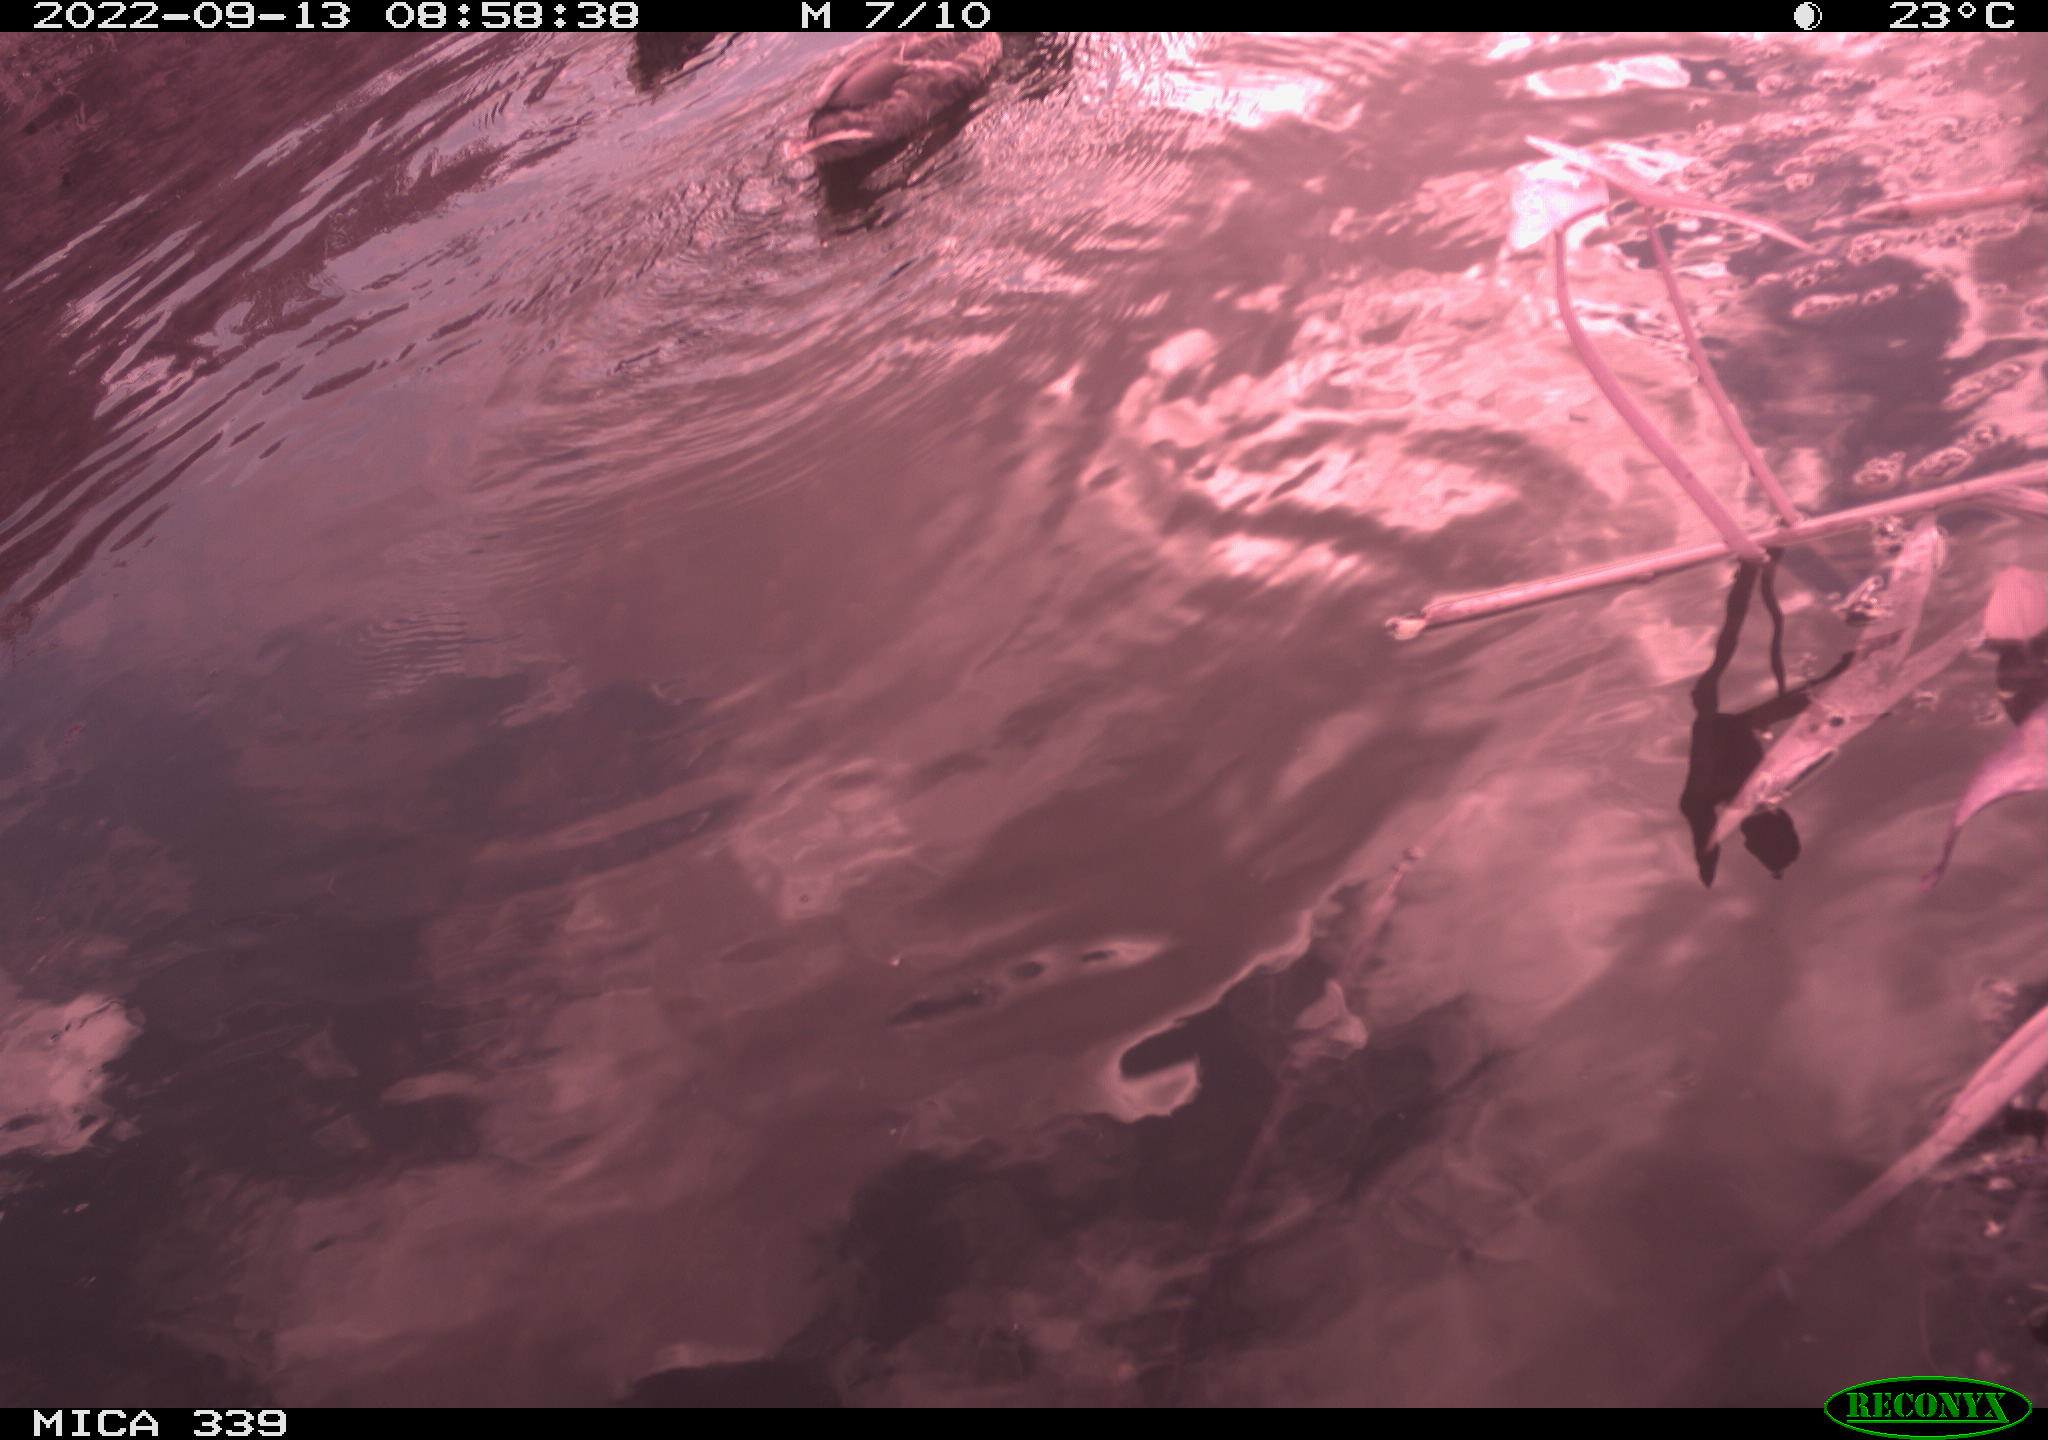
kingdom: Animalia
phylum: Chordata
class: Aves
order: Anseriformes
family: Anatidae
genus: Anas
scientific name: Anas
